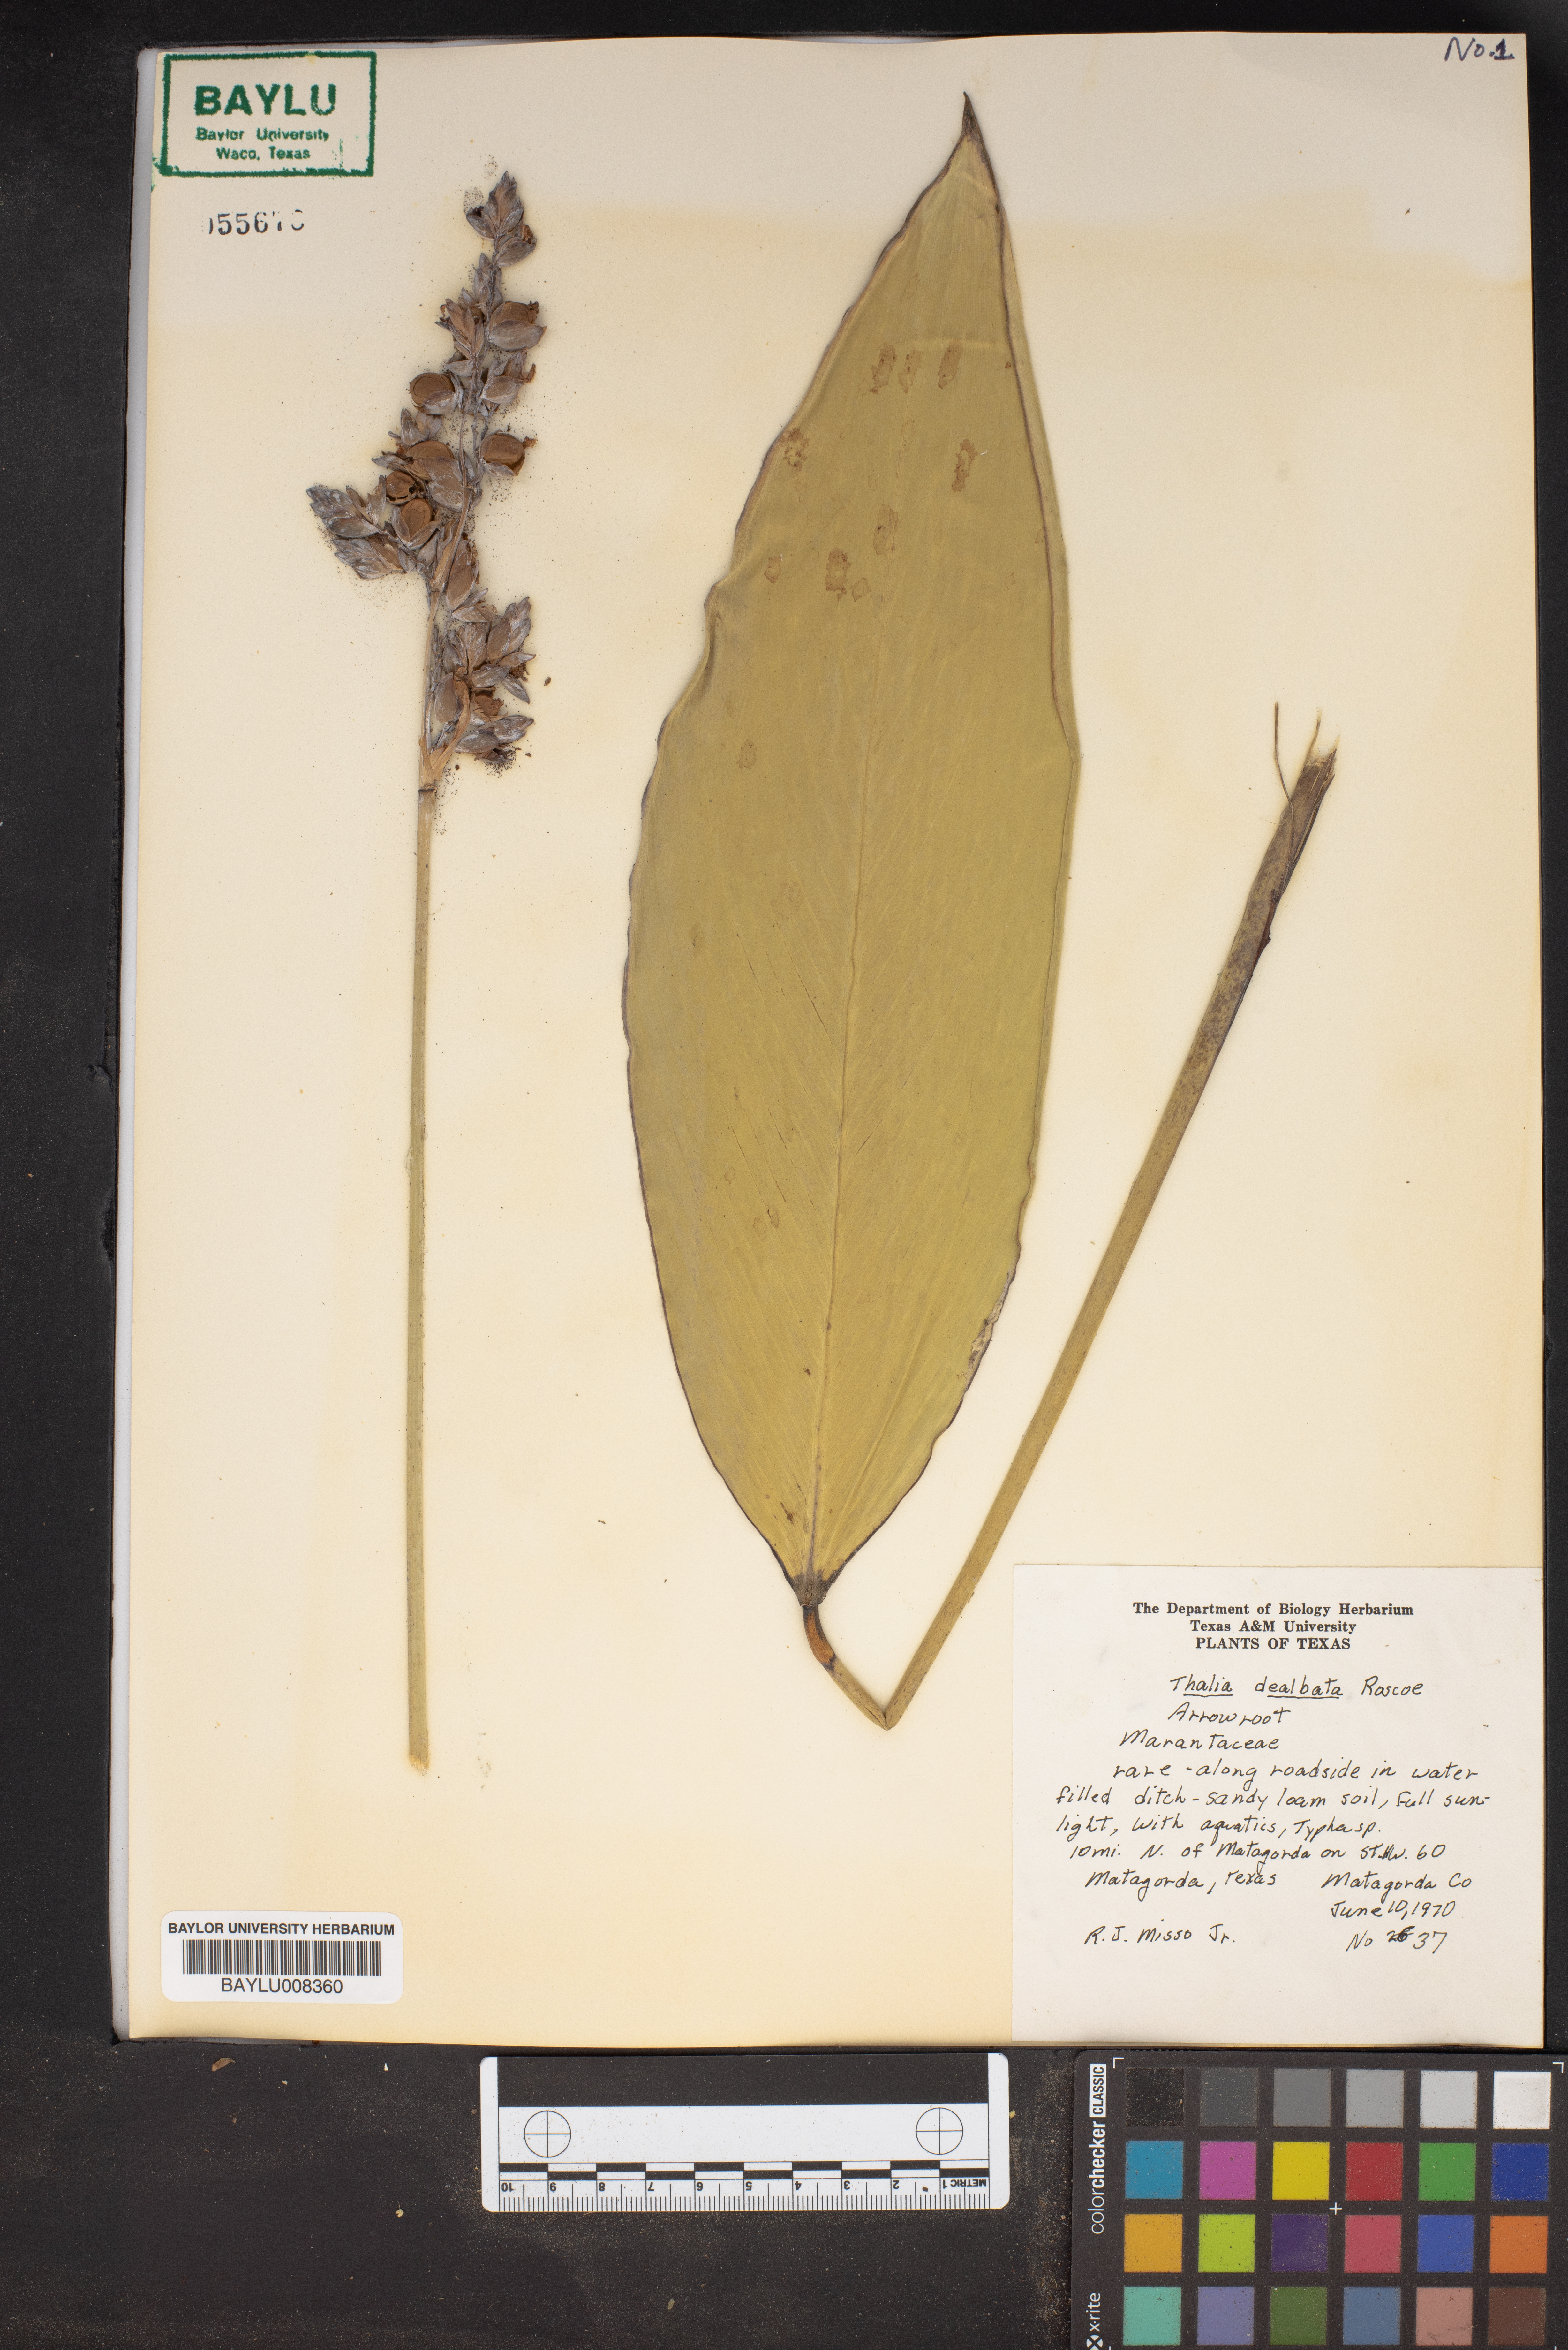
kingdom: Plantae
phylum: Tracheophyta
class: Liliopsida
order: Zingiberales
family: Marantaceae
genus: Thalia
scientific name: Thalia dealbata
